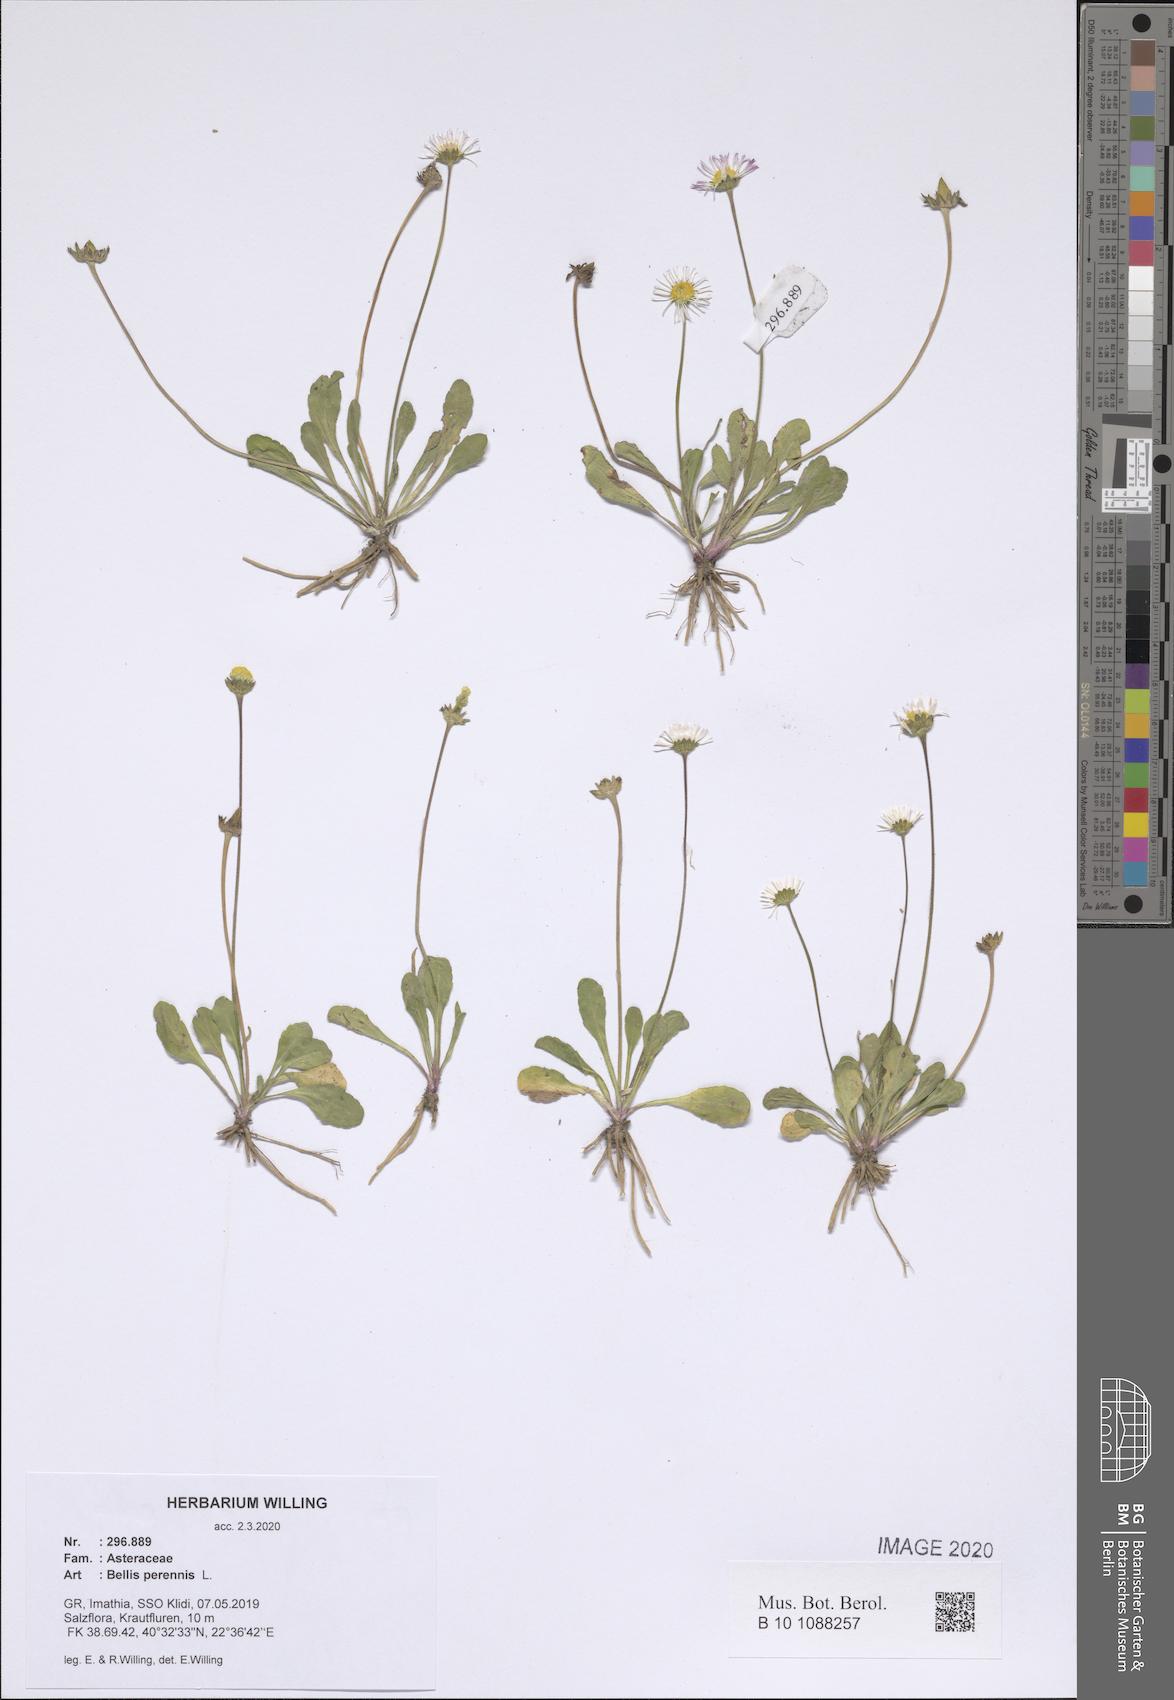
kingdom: Plantae
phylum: Tracheophyta
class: Magnoliopsida
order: Asterales
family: Asteraceae
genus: Bellis
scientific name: Bellis perennis
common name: Lawndaisy
